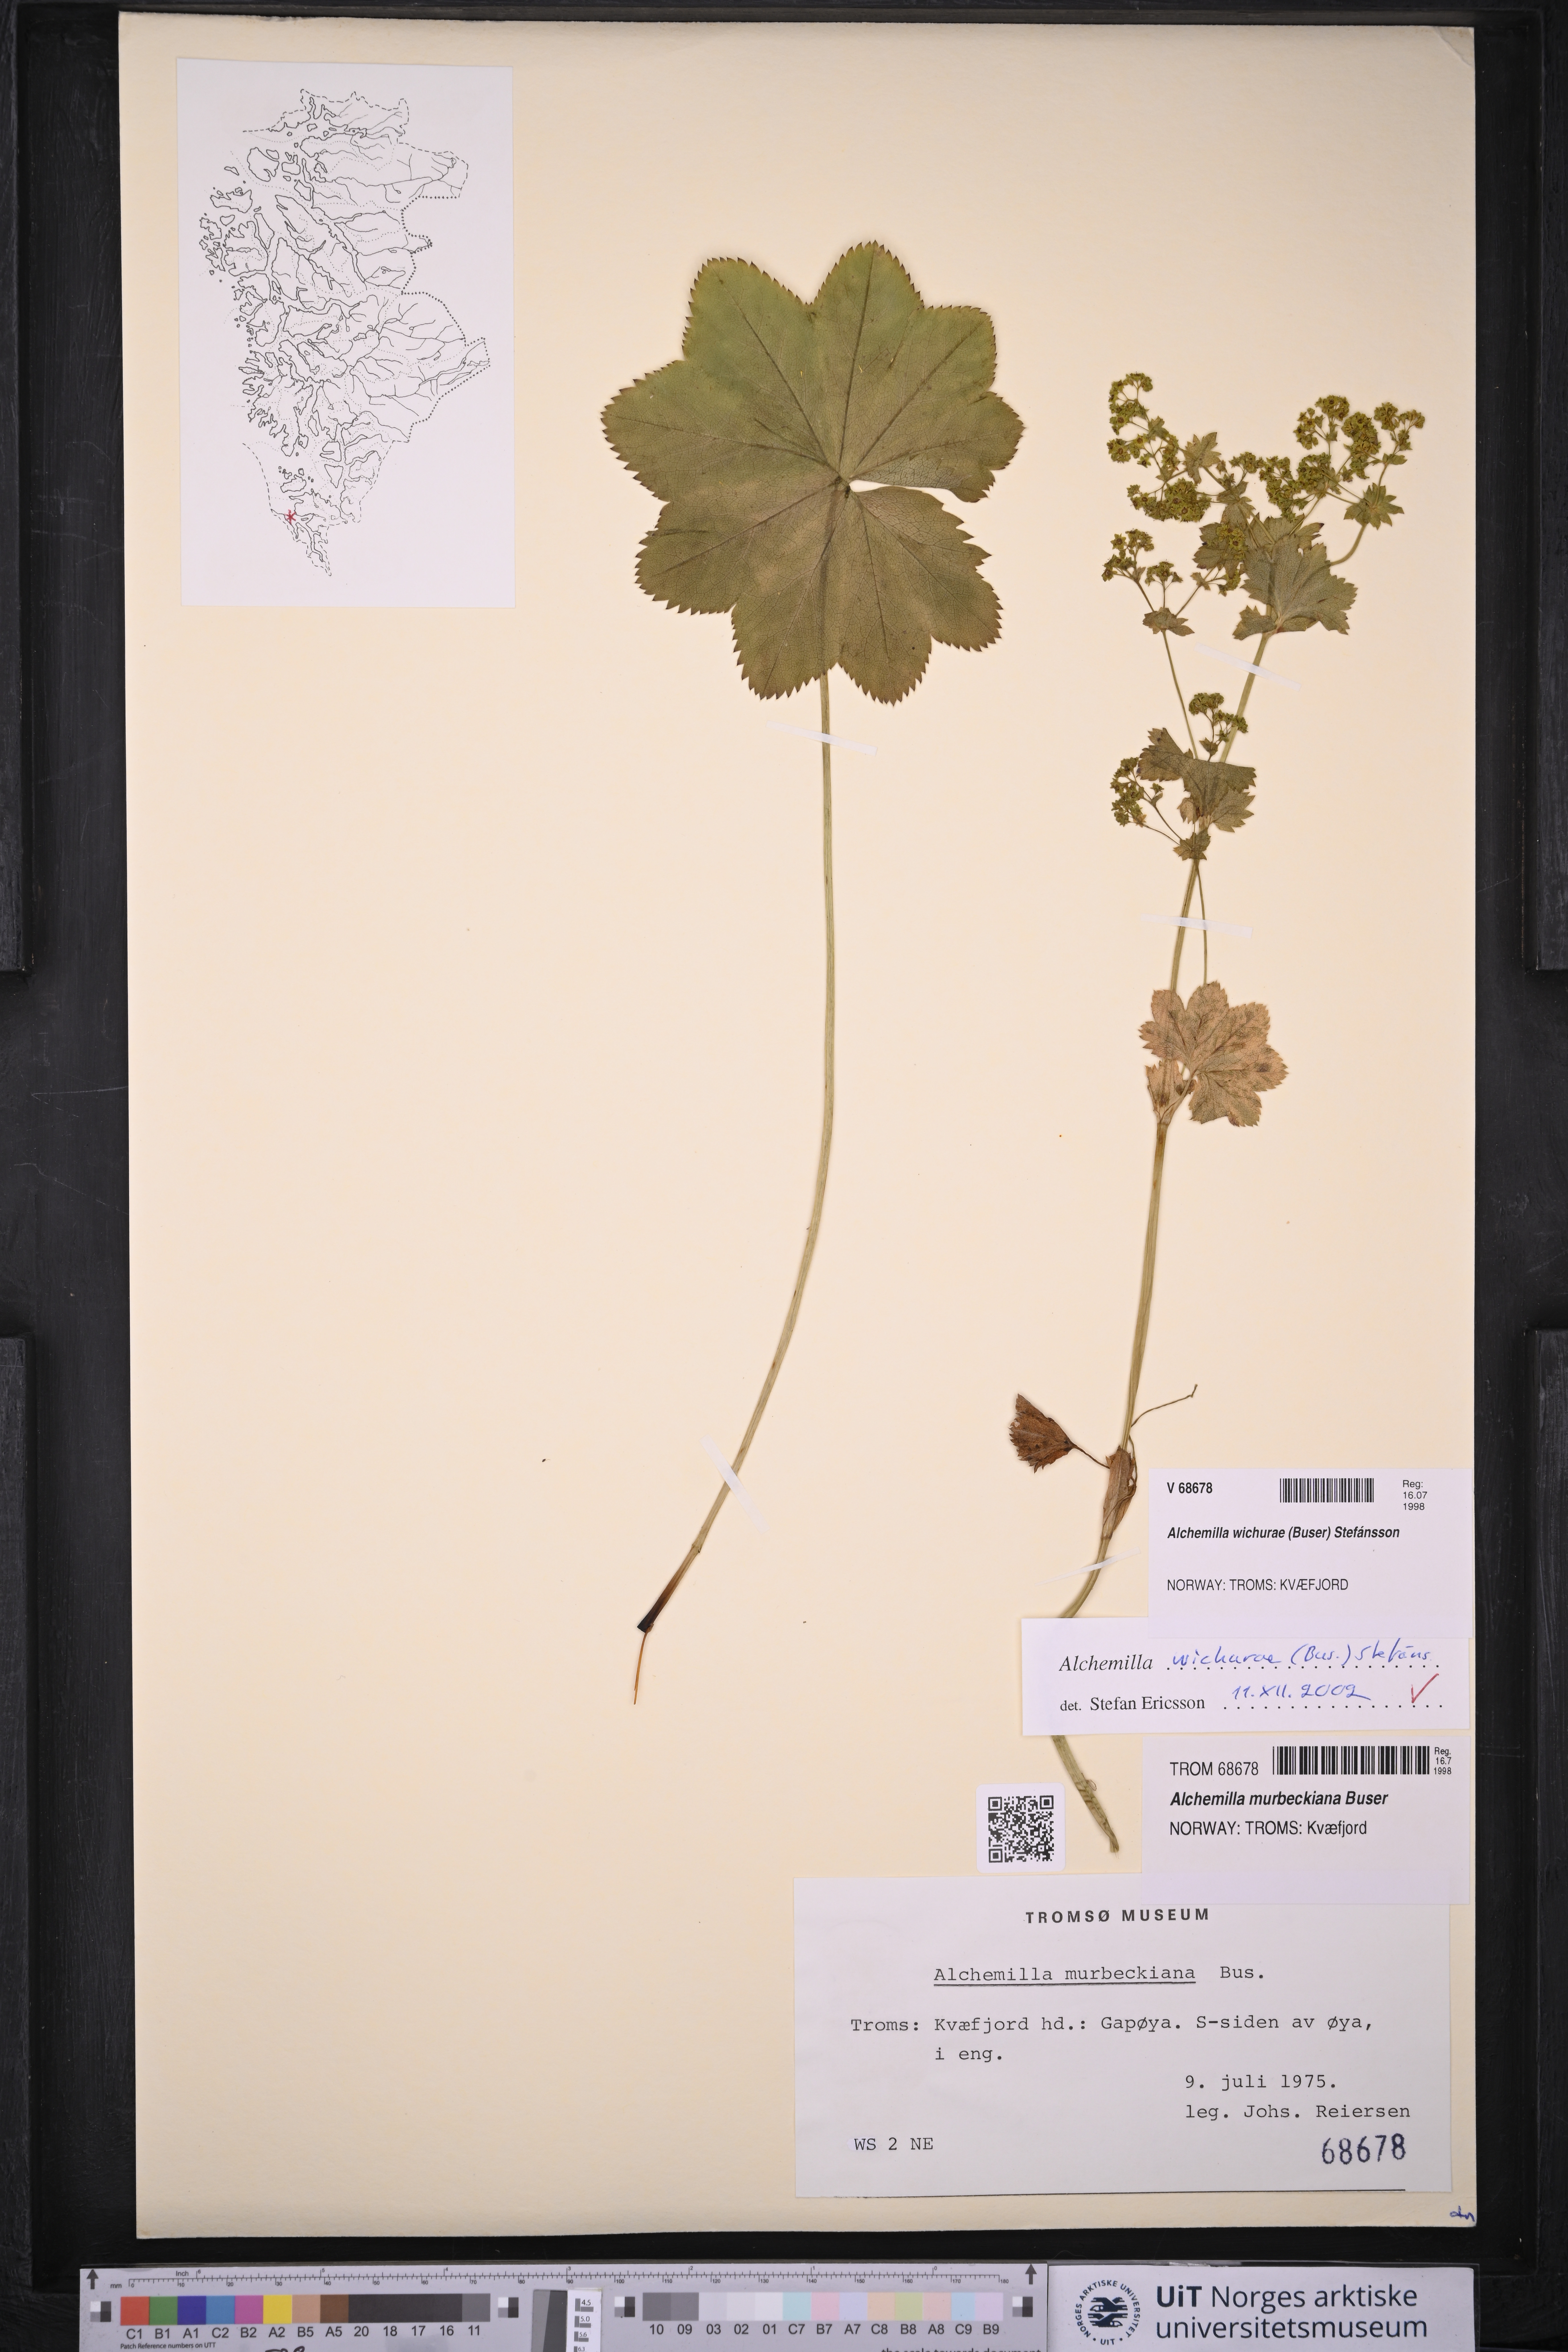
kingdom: Plantae
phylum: Tracheophyta
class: Magnoliopsida
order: Rosales
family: Rosaceae
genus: Alchemilla
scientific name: Alchemilla wichurae
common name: Rock lady's mantle
